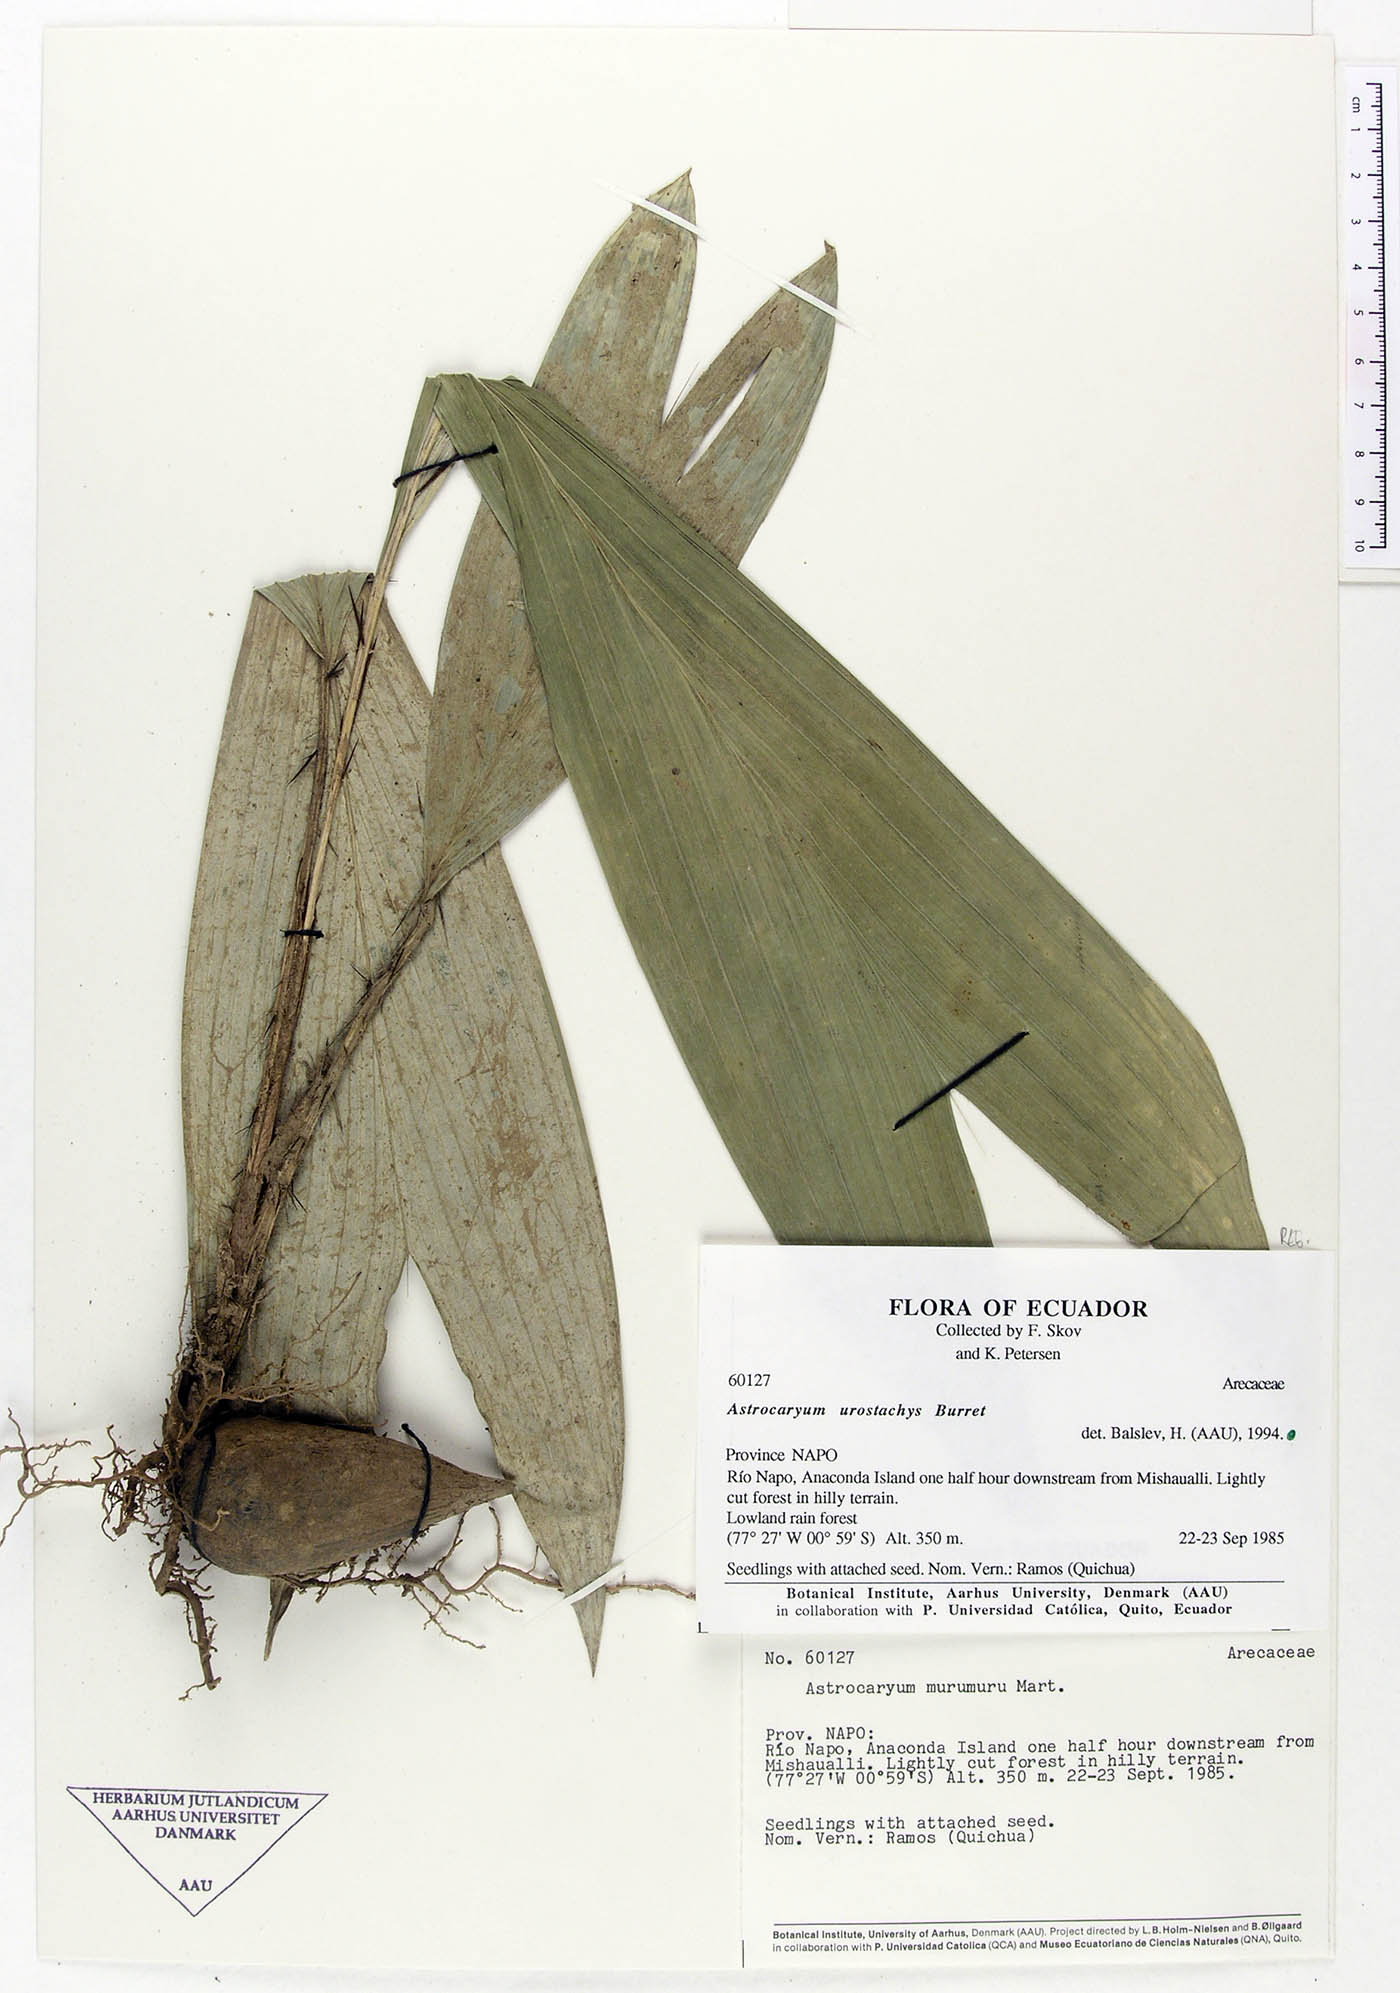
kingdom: Plantae
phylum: Tracheophyta
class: Liliopsida
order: Arecales
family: Arecaceae
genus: Astrocaryum
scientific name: Astrocaryum urostachys
